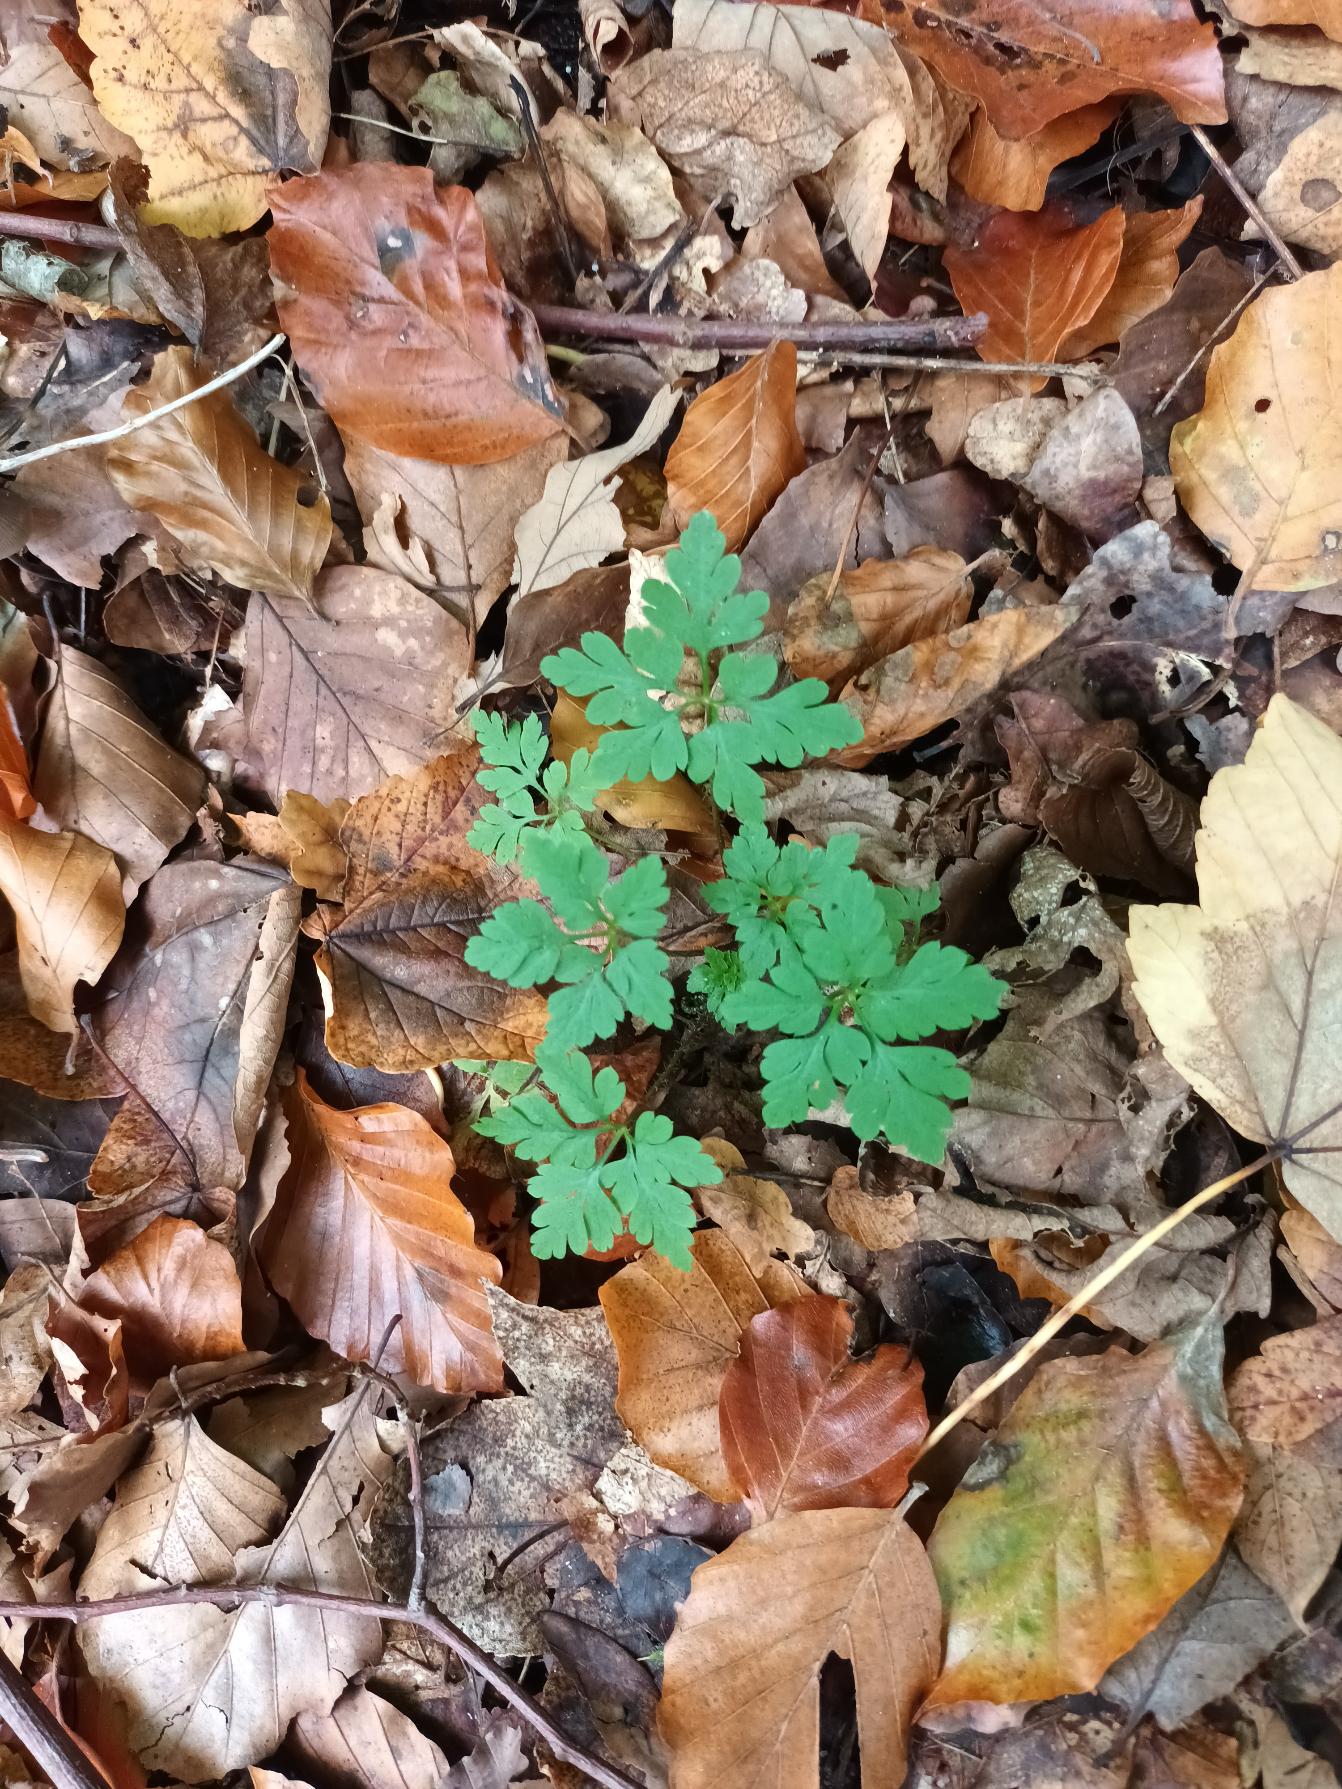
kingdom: Plantae
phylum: Tracheophyta
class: Magnoliopsida
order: Geraniales
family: Geraniaceae
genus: Geranium
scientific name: Geranium robertianum
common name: Stinkende storkenæb
